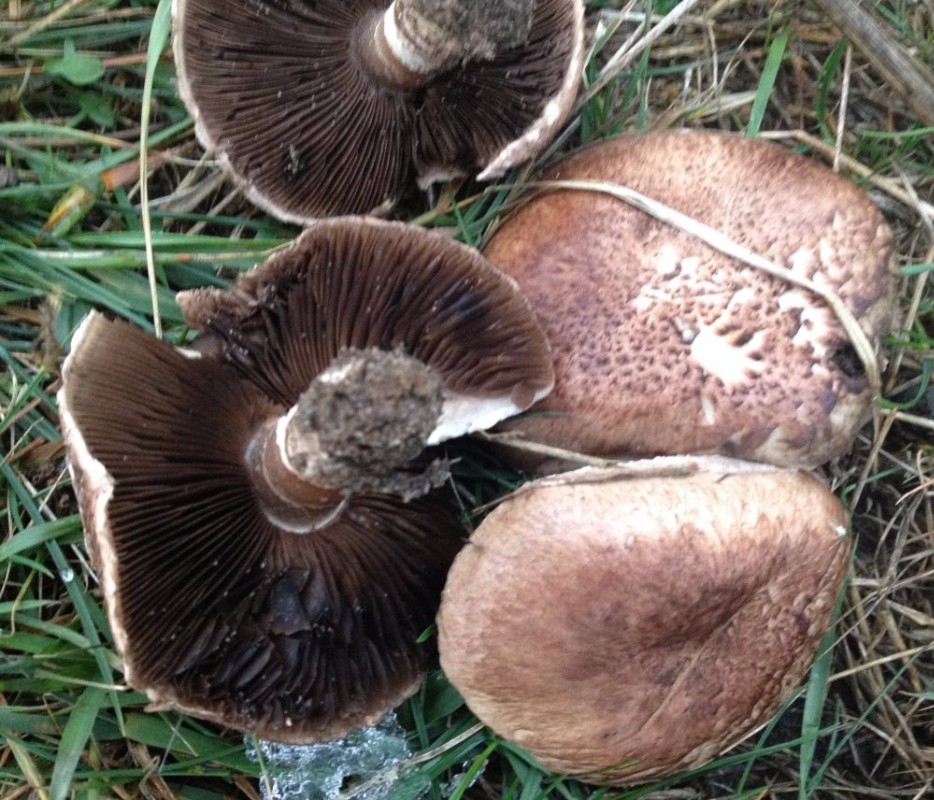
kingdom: Fungi
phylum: Basidiomycota
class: Agaricomycetes
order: Agaricales
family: Agaricaceae
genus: Agaricus
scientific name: Agaricus cupreobrunneus
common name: kobberbrun champignon
